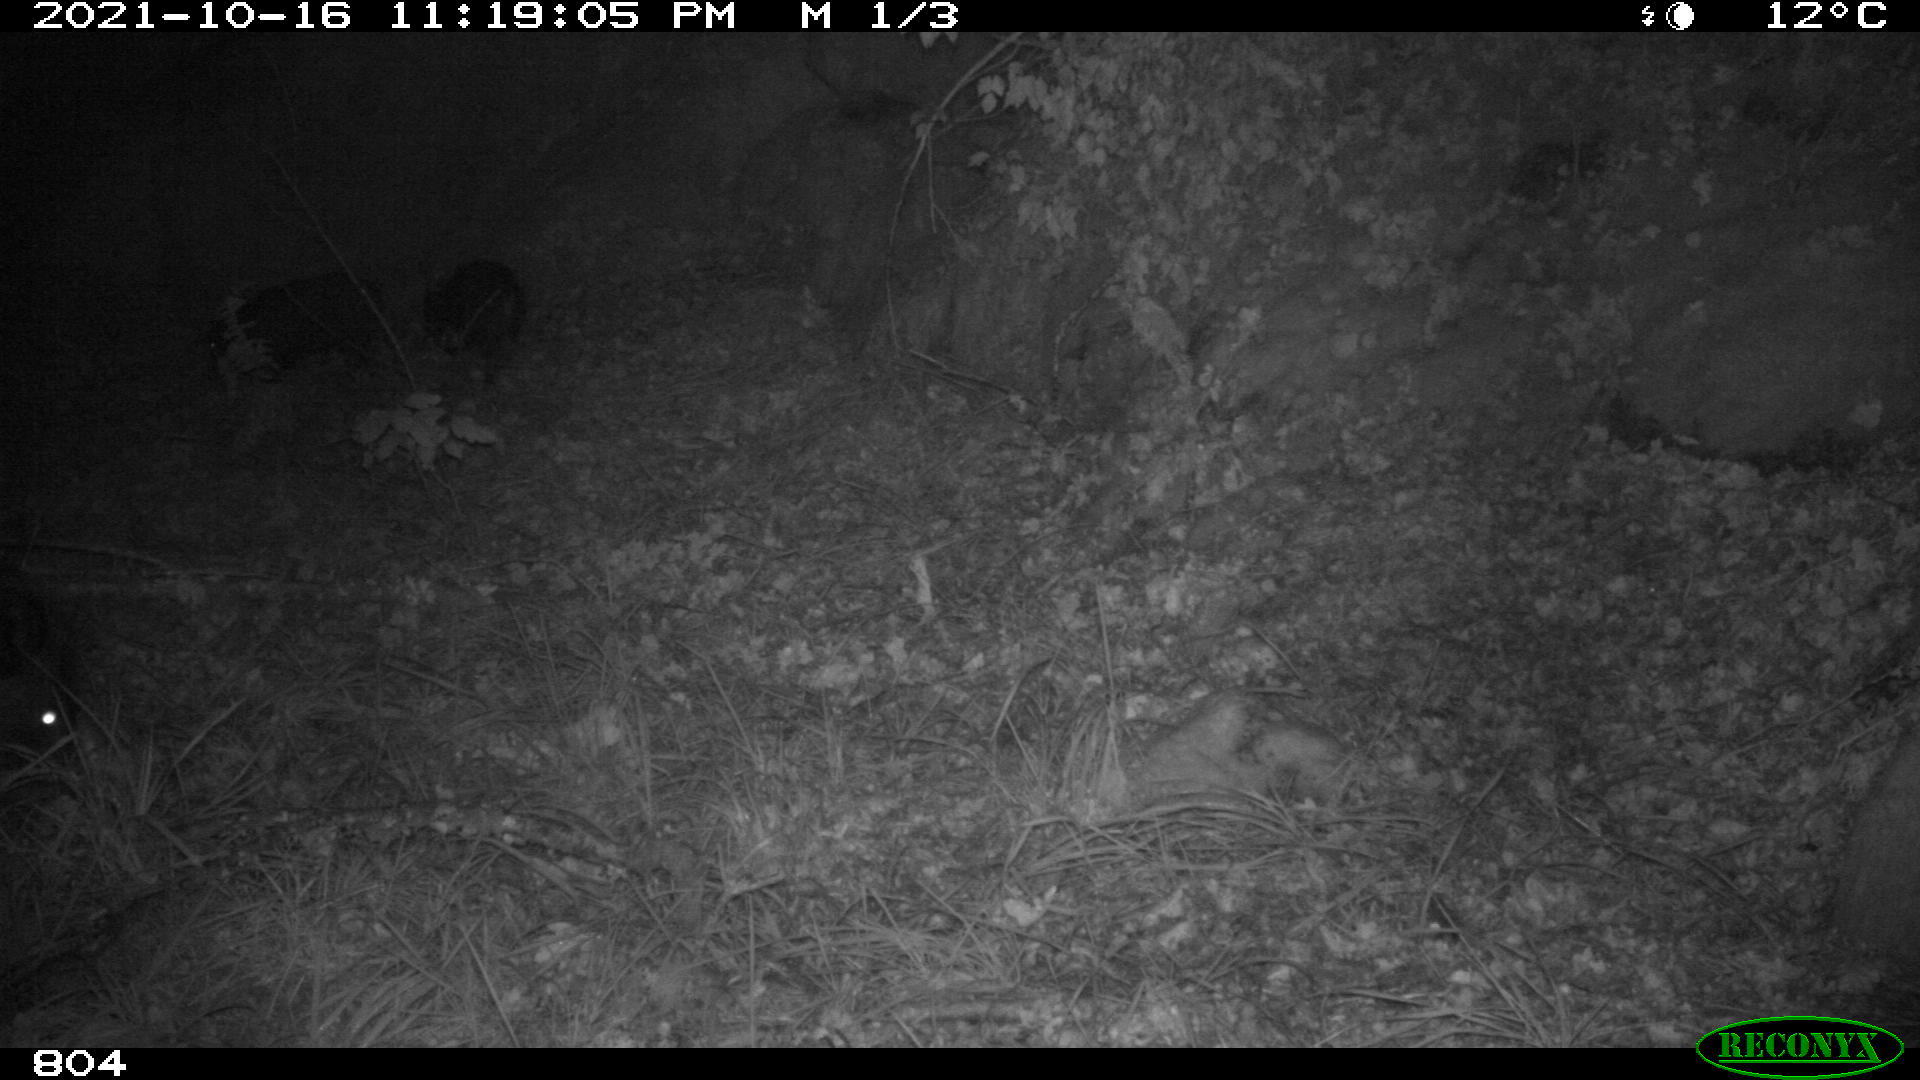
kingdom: Animalia
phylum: Chordata
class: Mammalia
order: Artiodactyla
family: Suidae
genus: Sus
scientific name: Sus scrofa
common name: Wild boar
